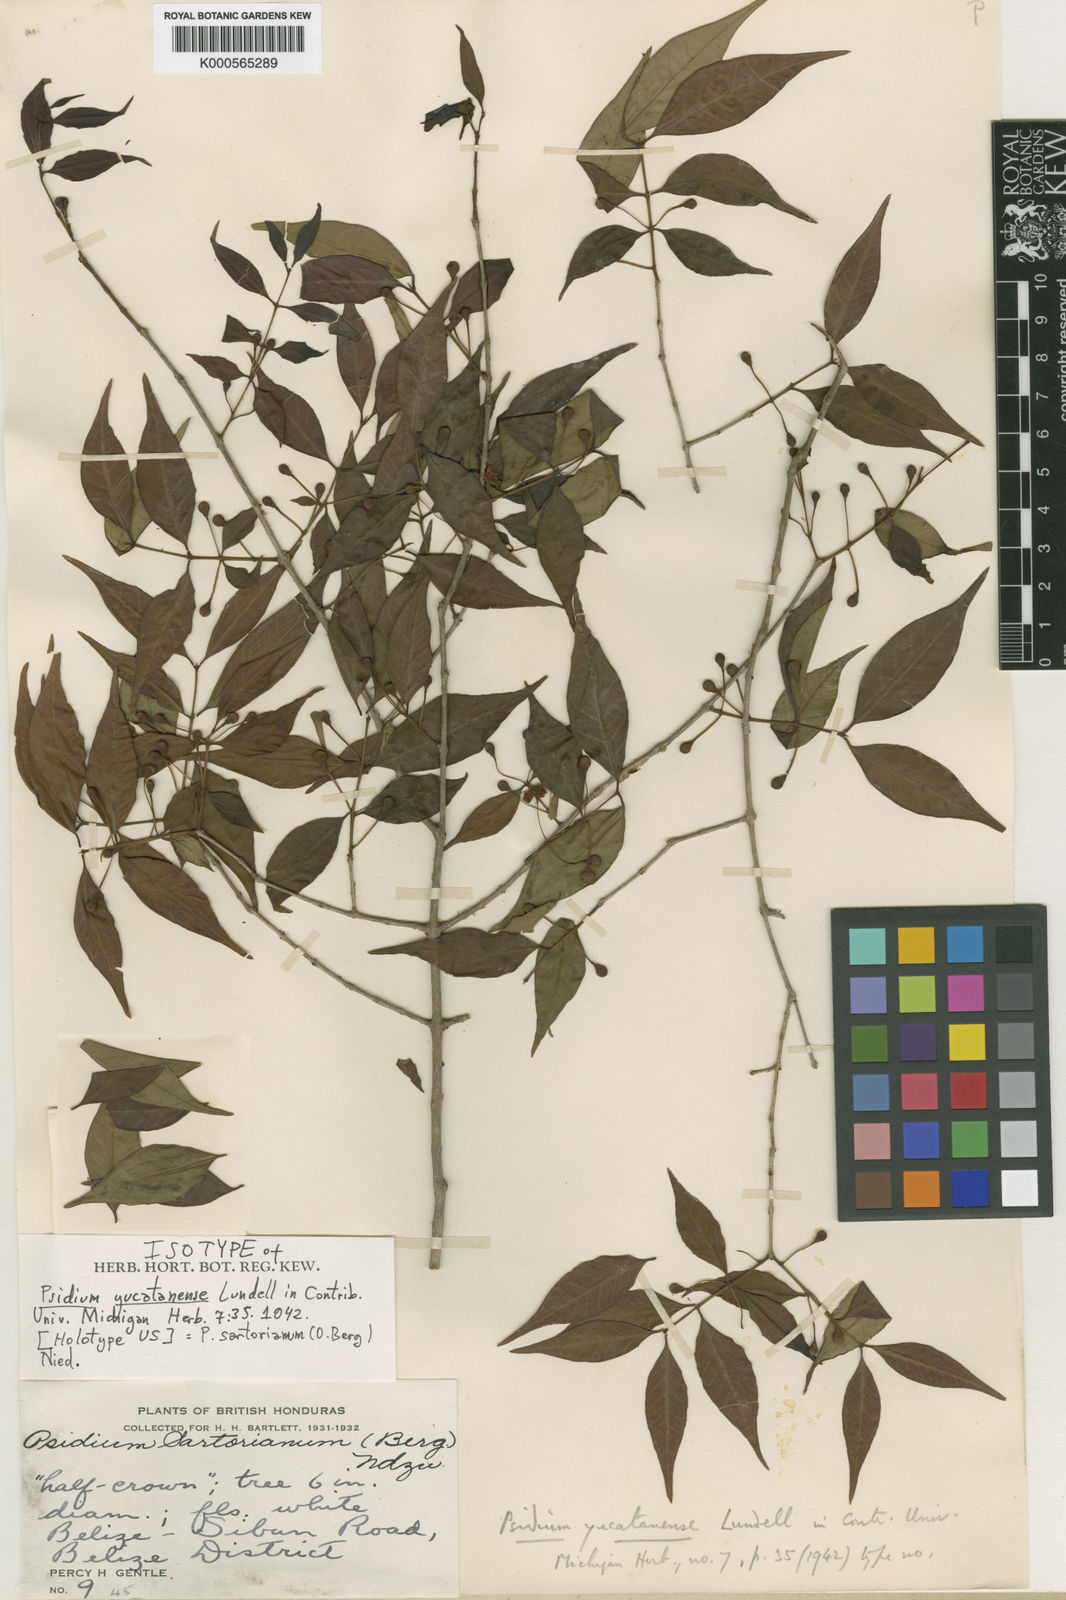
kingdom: Plantae
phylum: Tracheophyta
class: Magnoliopsida
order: Myrtales
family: Myrtaceae
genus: Psidium
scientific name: Psidium sartorianum
